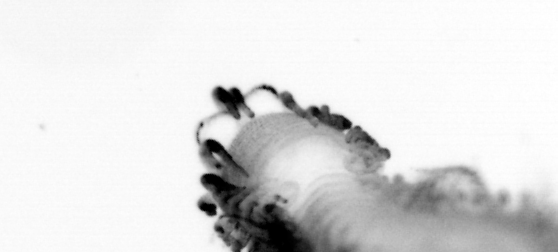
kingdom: Animalia
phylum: Annelida
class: Polychaeta
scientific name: Polychaeta
